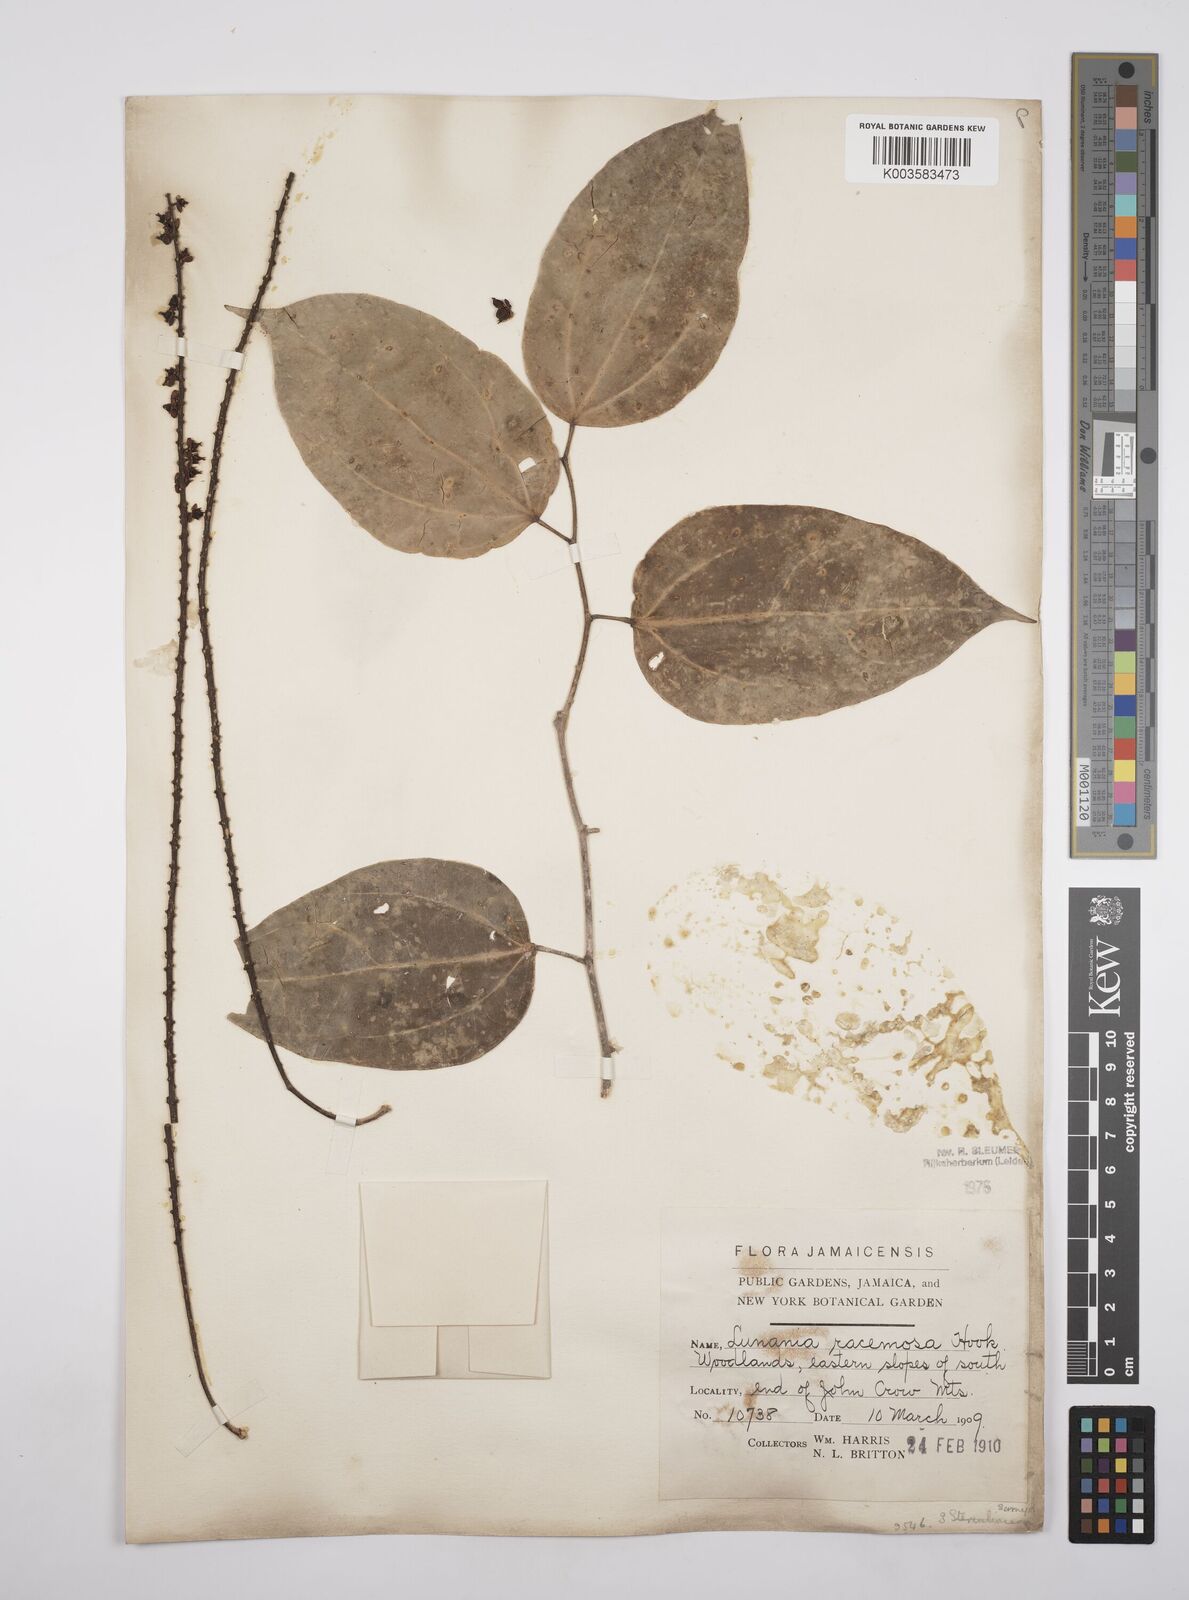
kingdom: Plantae
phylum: Tracheophyta
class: Magnoliopsida
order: Malpighiales
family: Salicaceae
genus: Lunania
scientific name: Lunania racemosa
